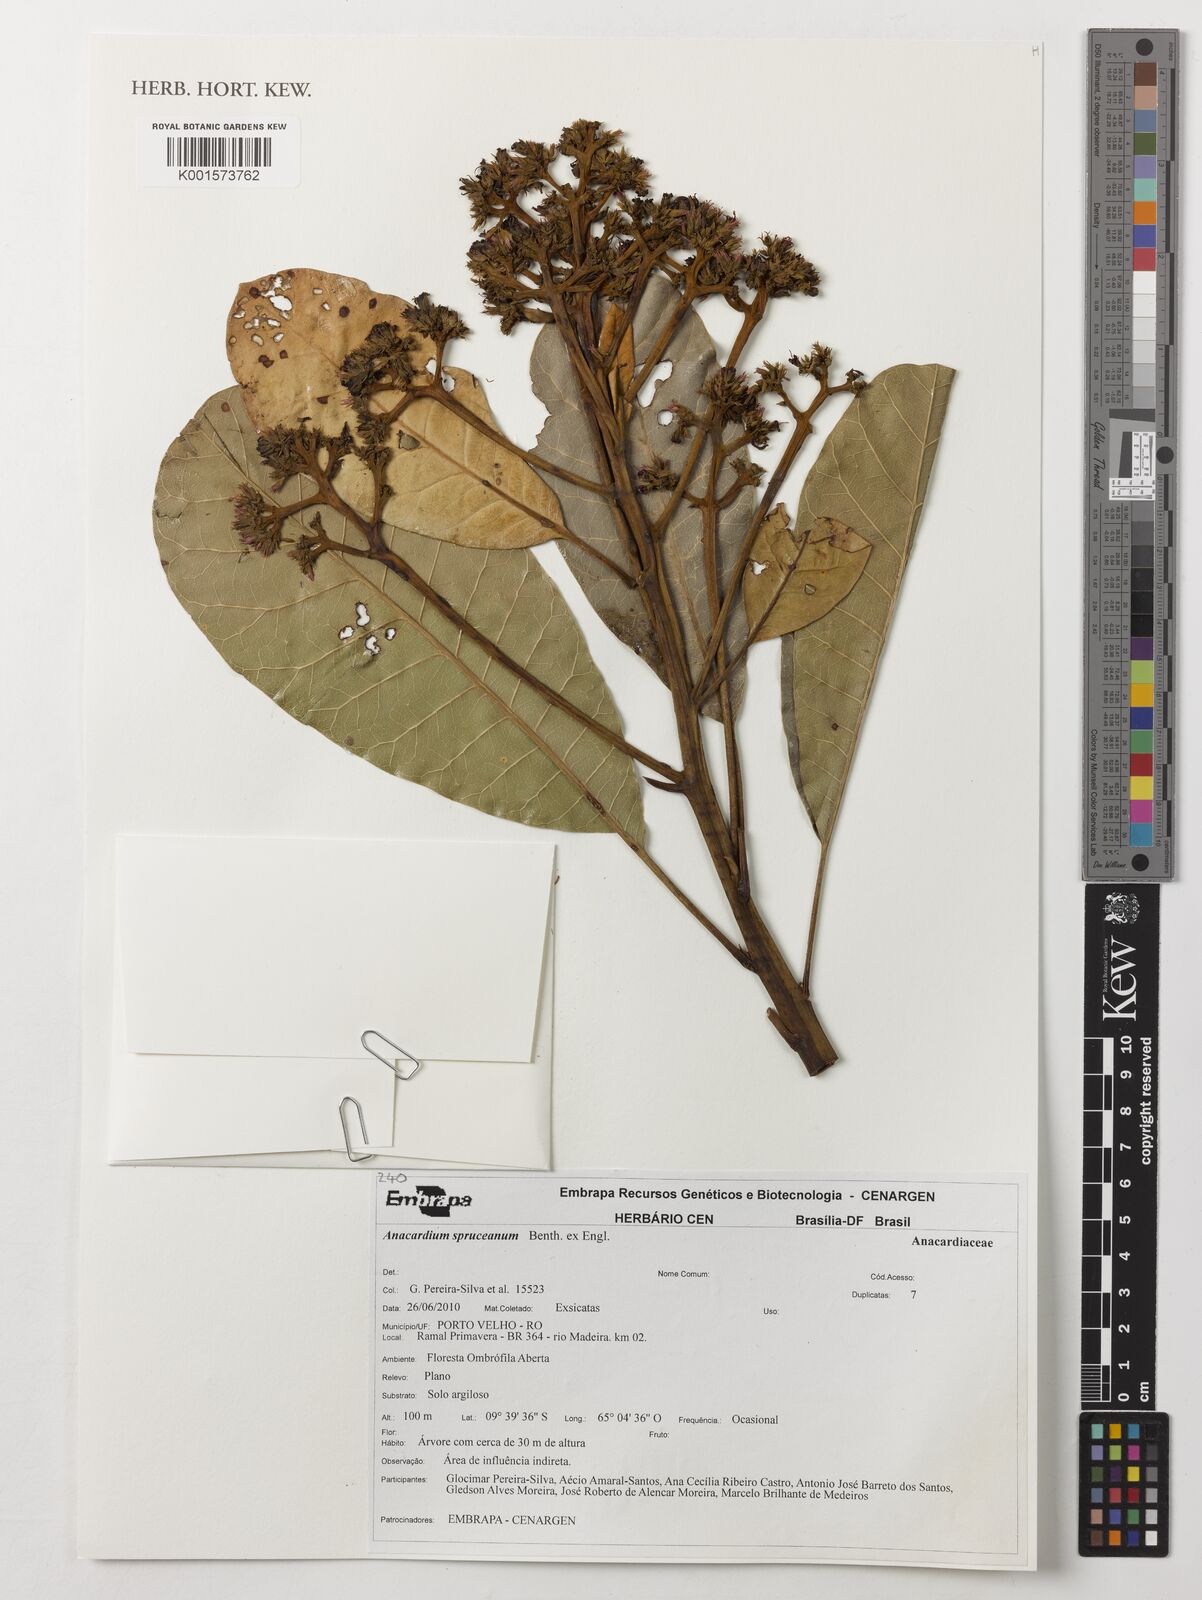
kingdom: Plantae
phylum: Tracheophyta
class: Magnoliopsida
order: Sapindales
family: Anacardiaceae
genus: Anacardium
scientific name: Anacardium spruceanum
